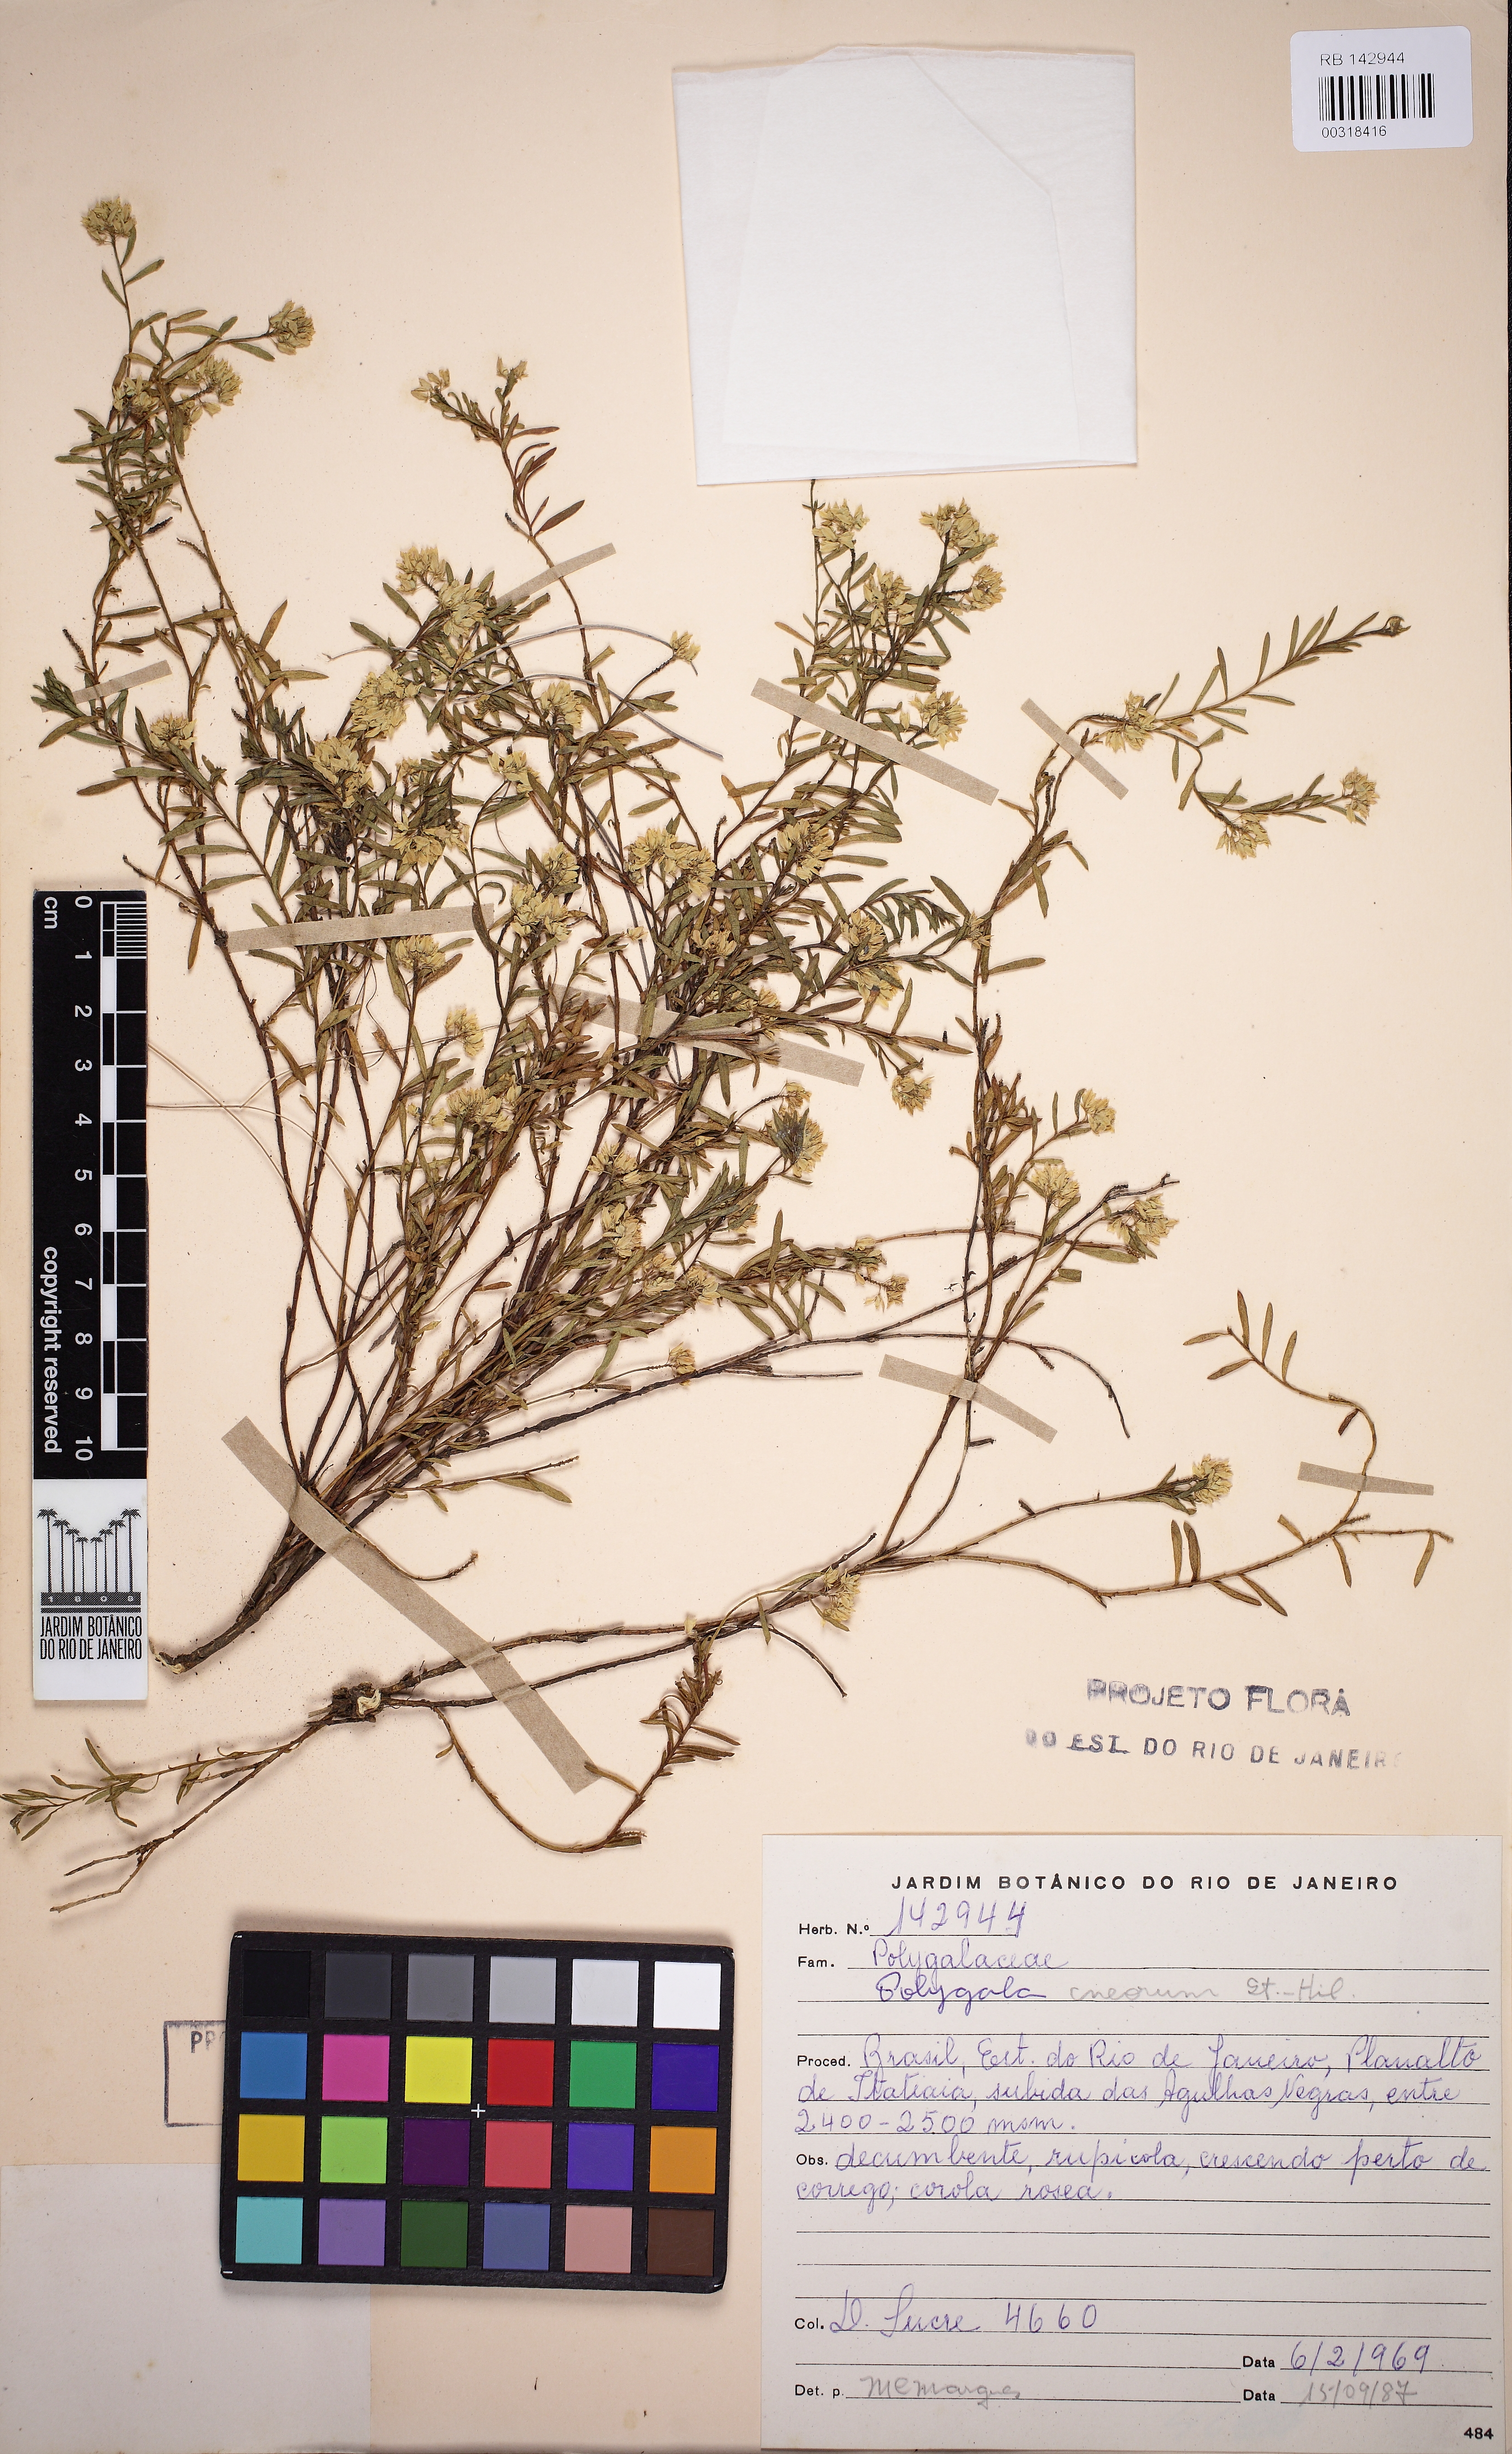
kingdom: Plantae
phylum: Tracheophyta
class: Magnoliopsida
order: Fabales
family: Polygalaceae
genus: Polygala
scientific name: Polygala cneorum
